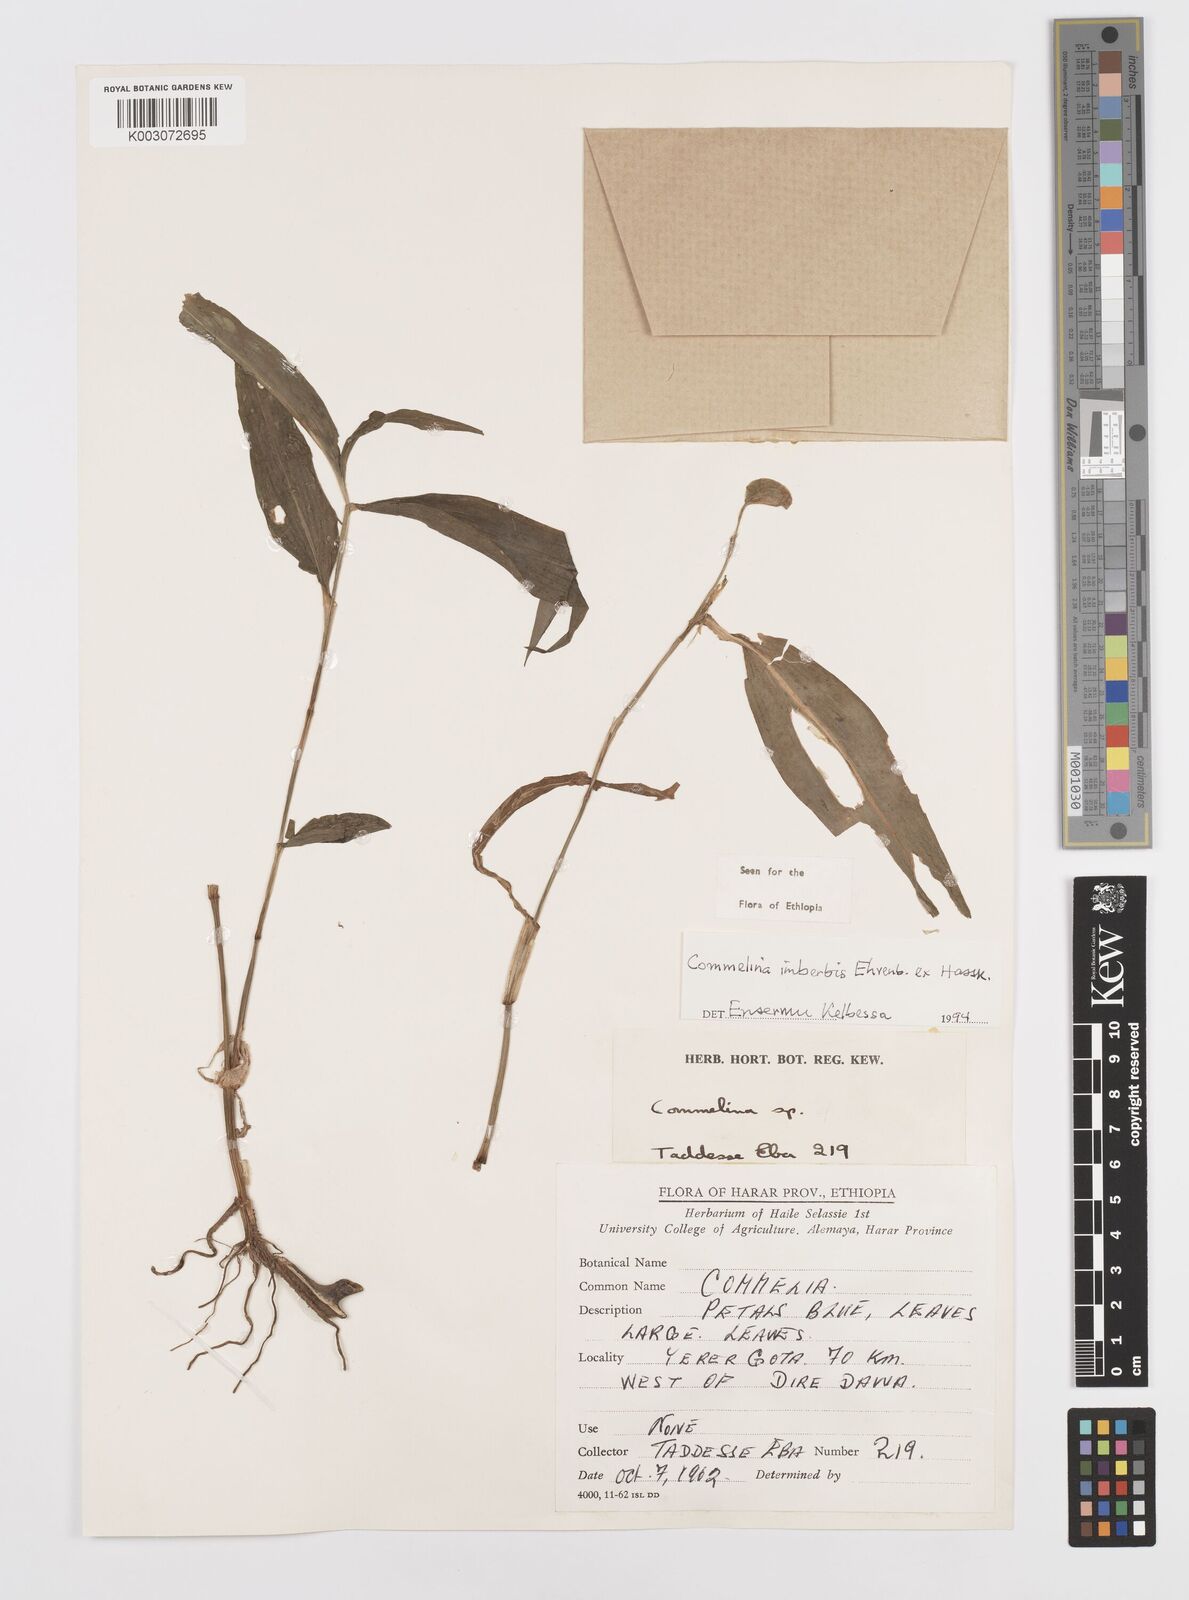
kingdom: Plantae
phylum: Tracheophyta
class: Liliopsida
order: Commelinales
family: Commelinaceae
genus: Commelina
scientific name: Commelina imberbis
